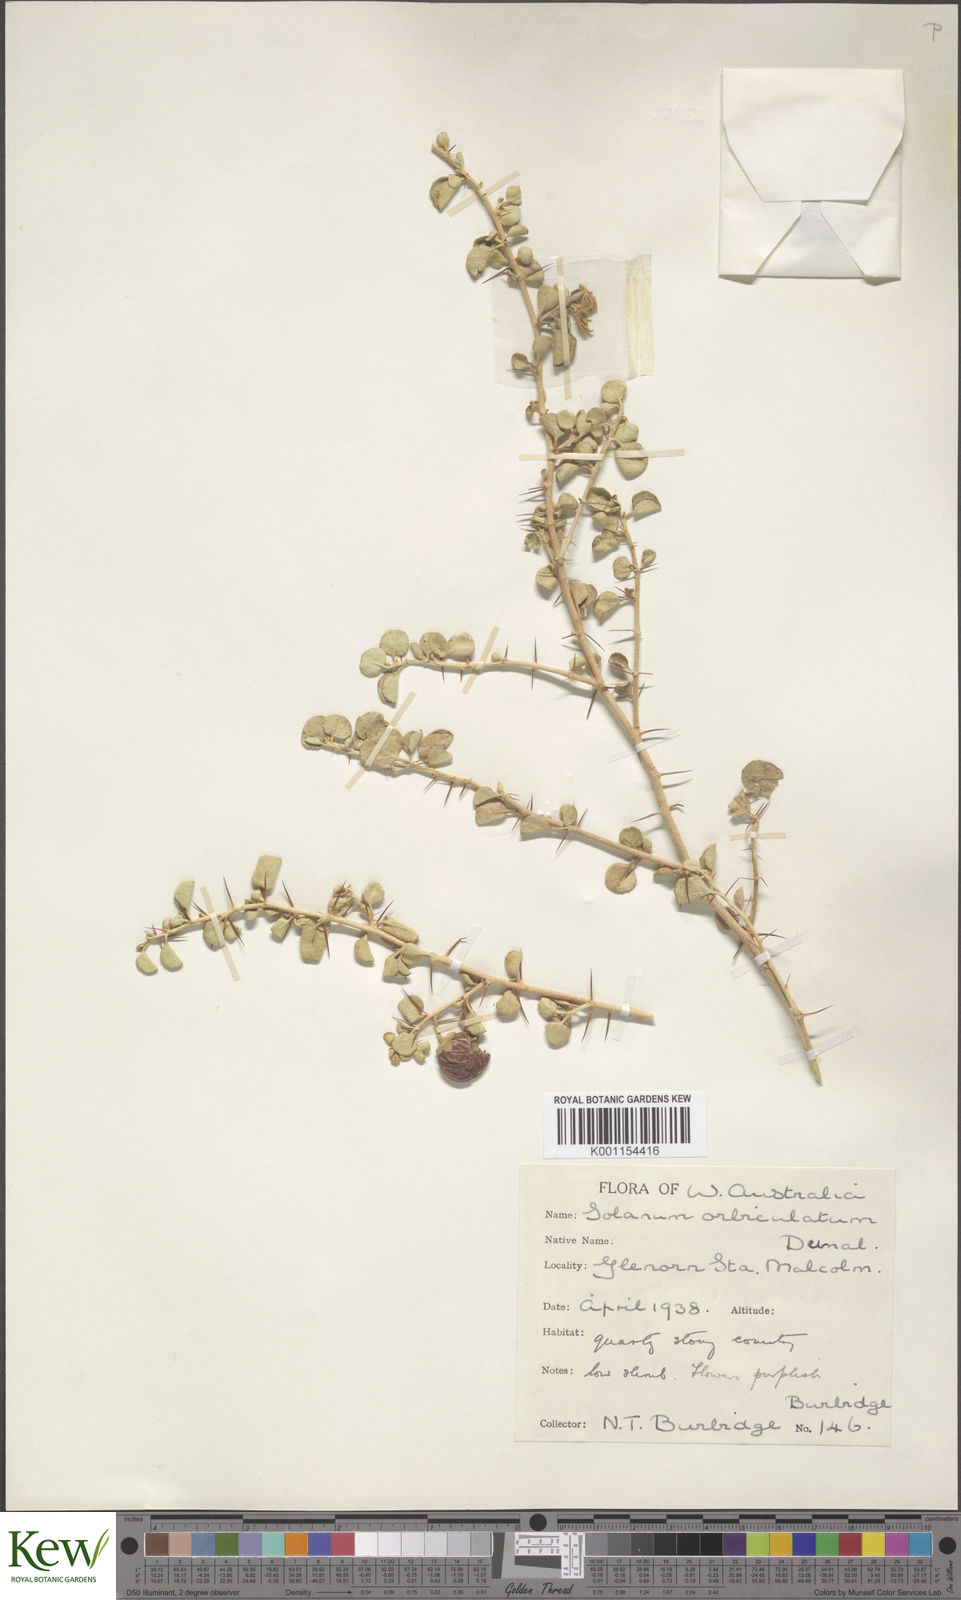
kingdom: Plantae
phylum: Tracheophyta
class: Magnoliopsida
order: Solanales
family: Solanaceae
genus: Solanum
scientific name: Solanum nummularium
